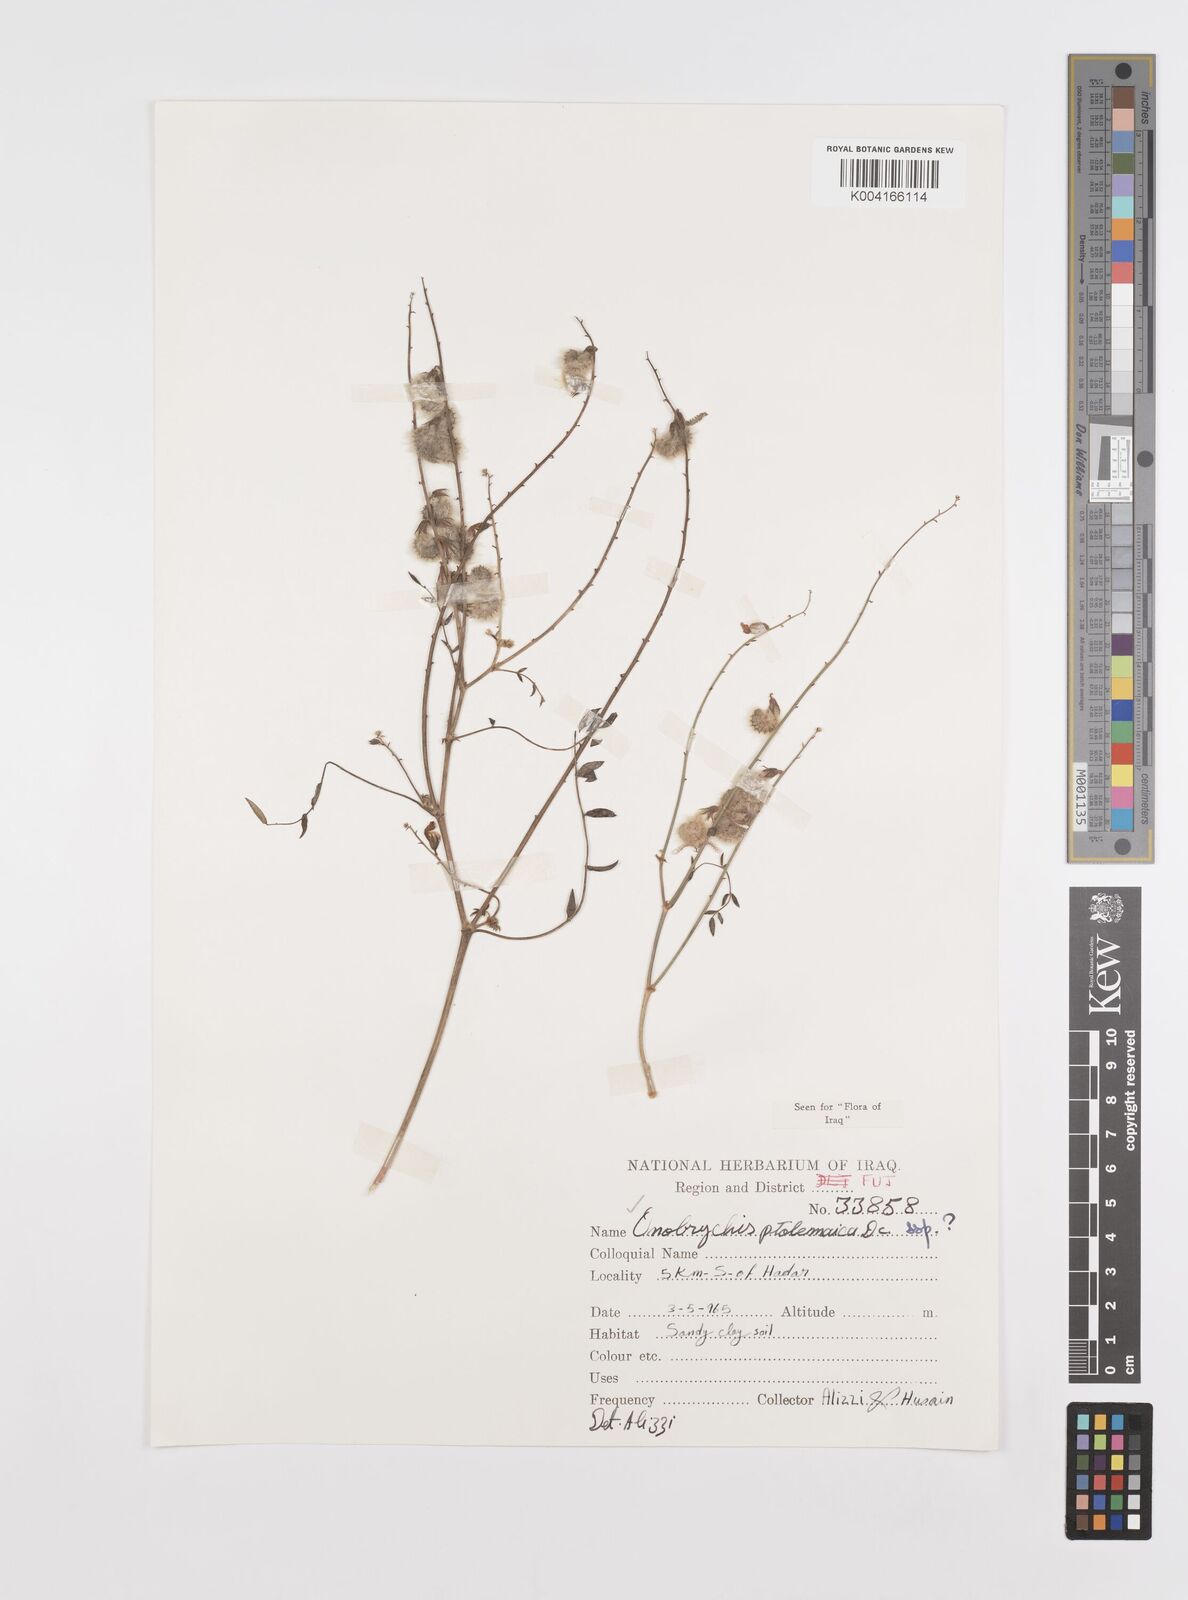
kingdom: Plantae
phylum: Tracheophyta
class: Magnoliopsida
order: Fabales
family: Fabaceae
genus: Onobrychis
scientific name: Onobrychis ptolemaica
